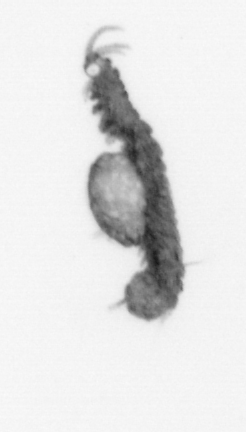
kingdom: Animalia
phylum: Annelida
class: Polychaeta
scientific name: Polychaeta
